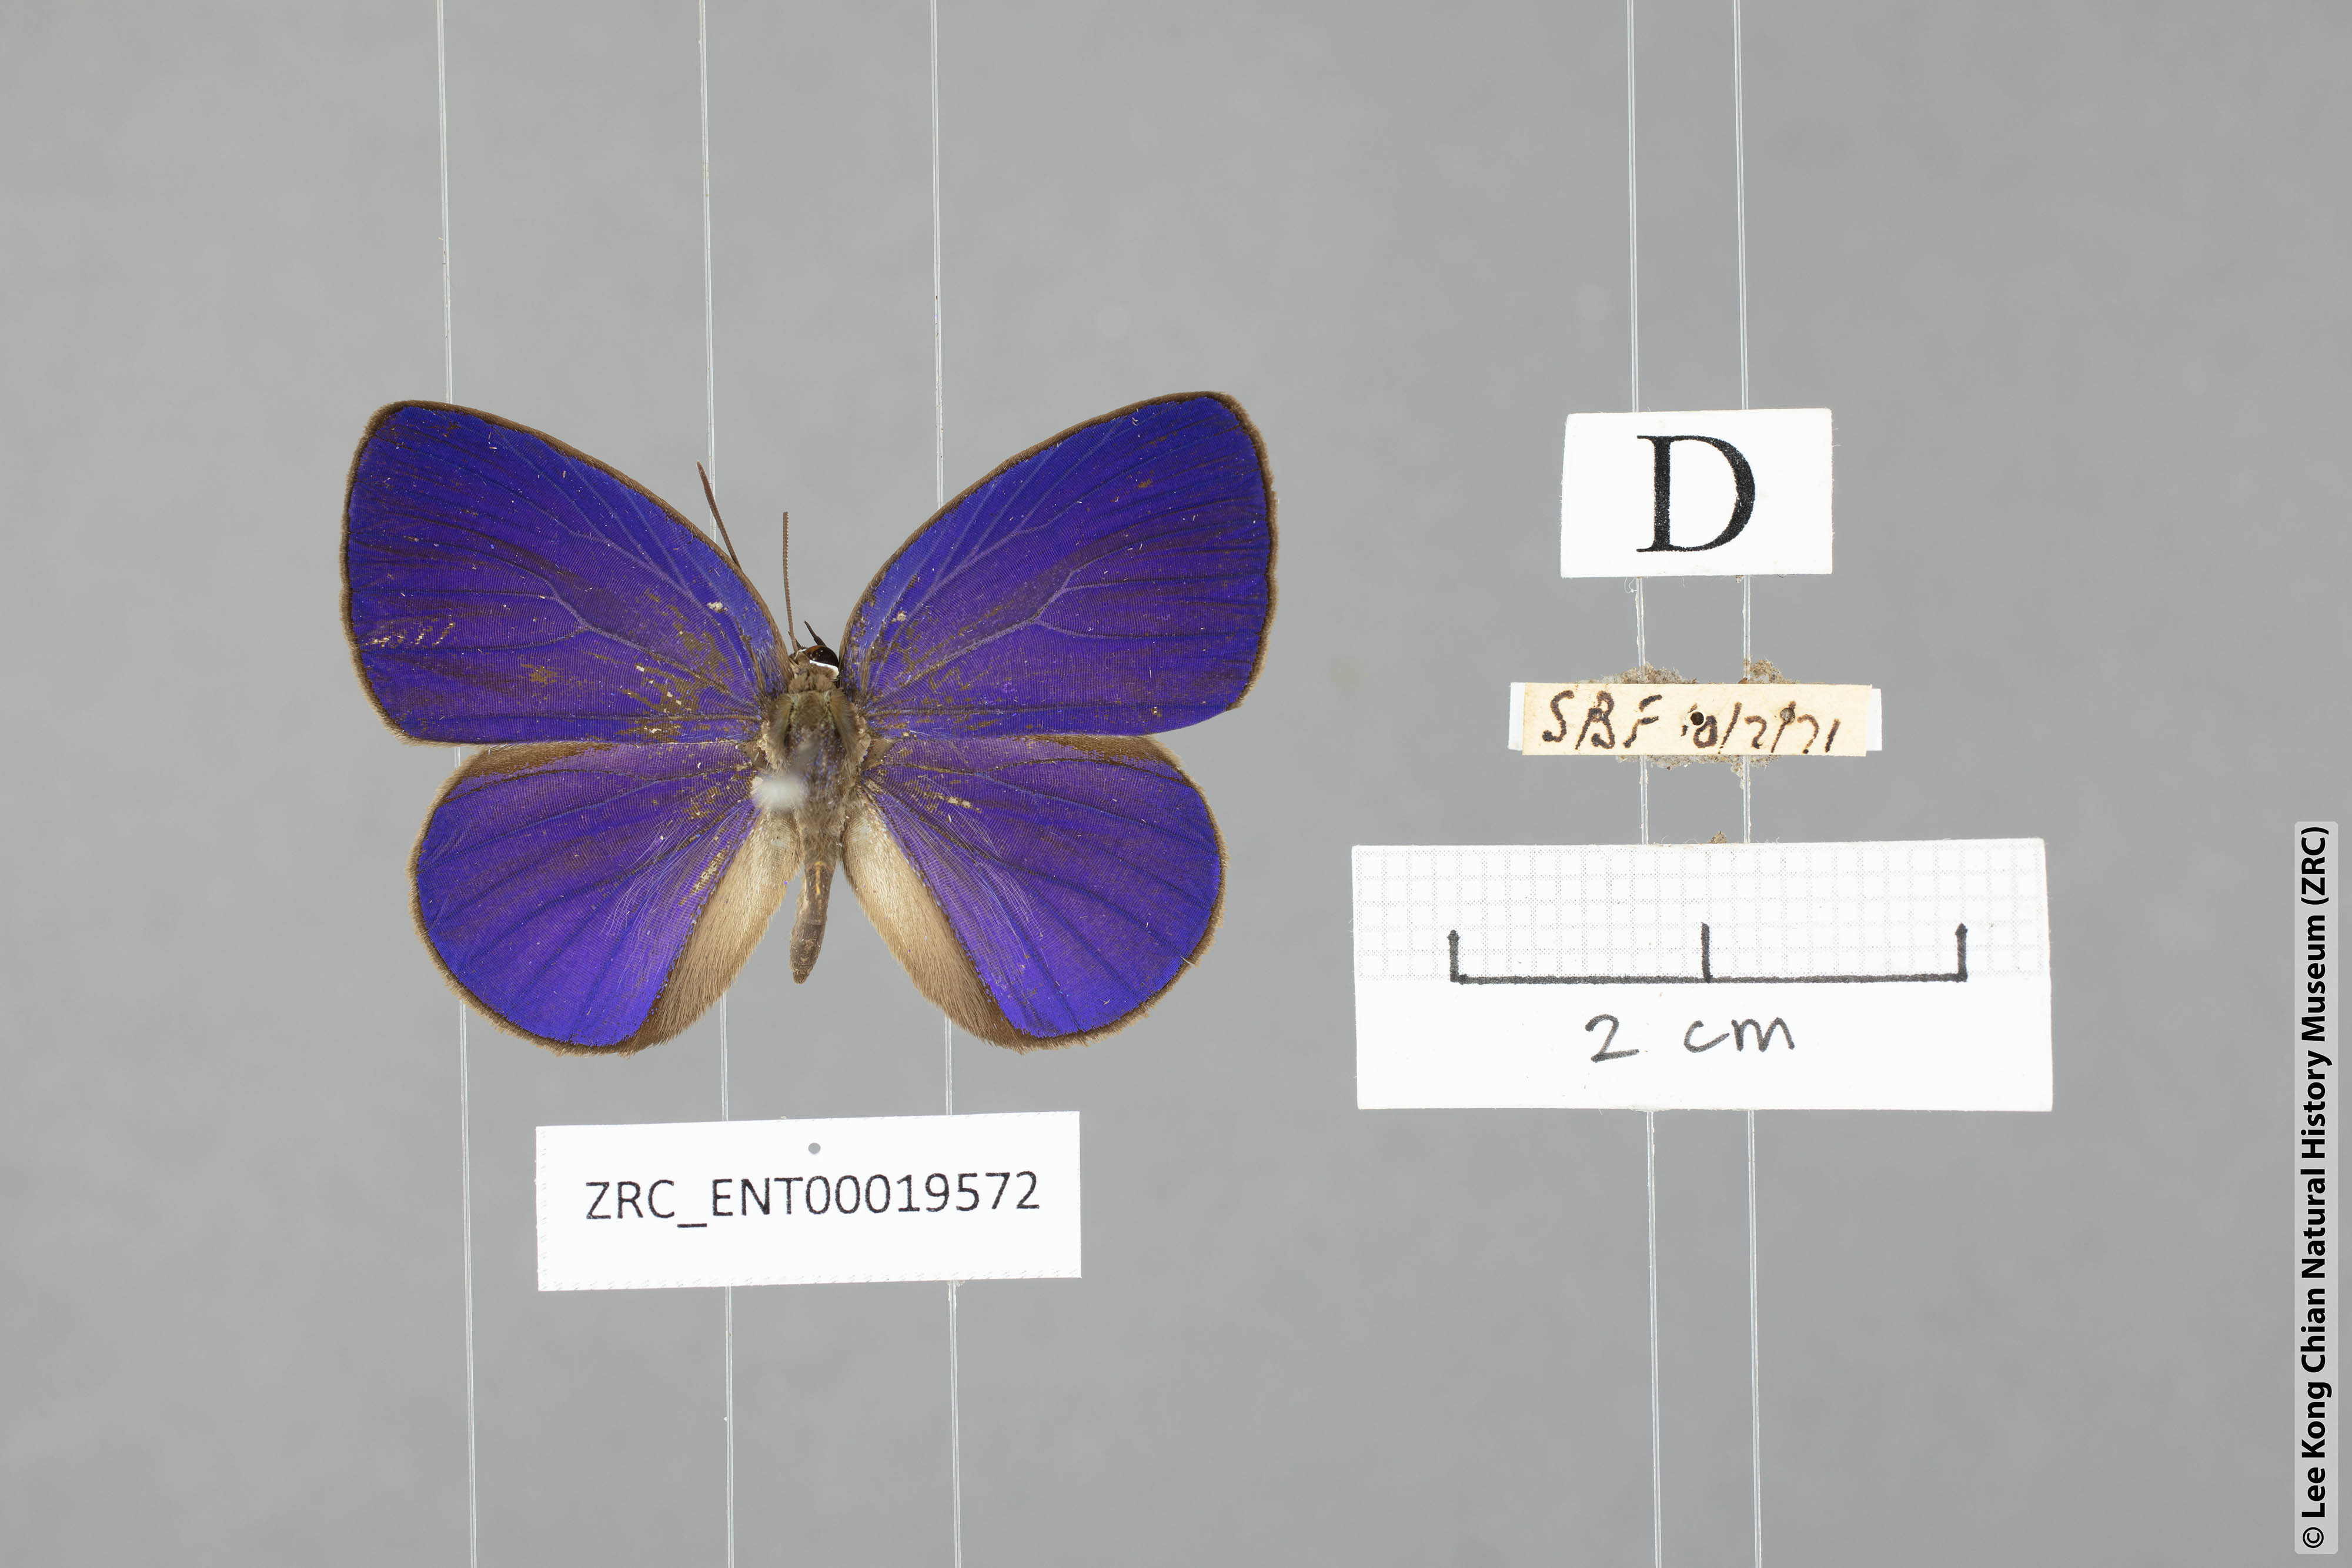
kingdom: Animalia
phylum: Arthropoda
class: Insecta
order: Lepidoptera
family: Lycaenidae
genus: Arhopala
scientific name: Arhopala inornata
